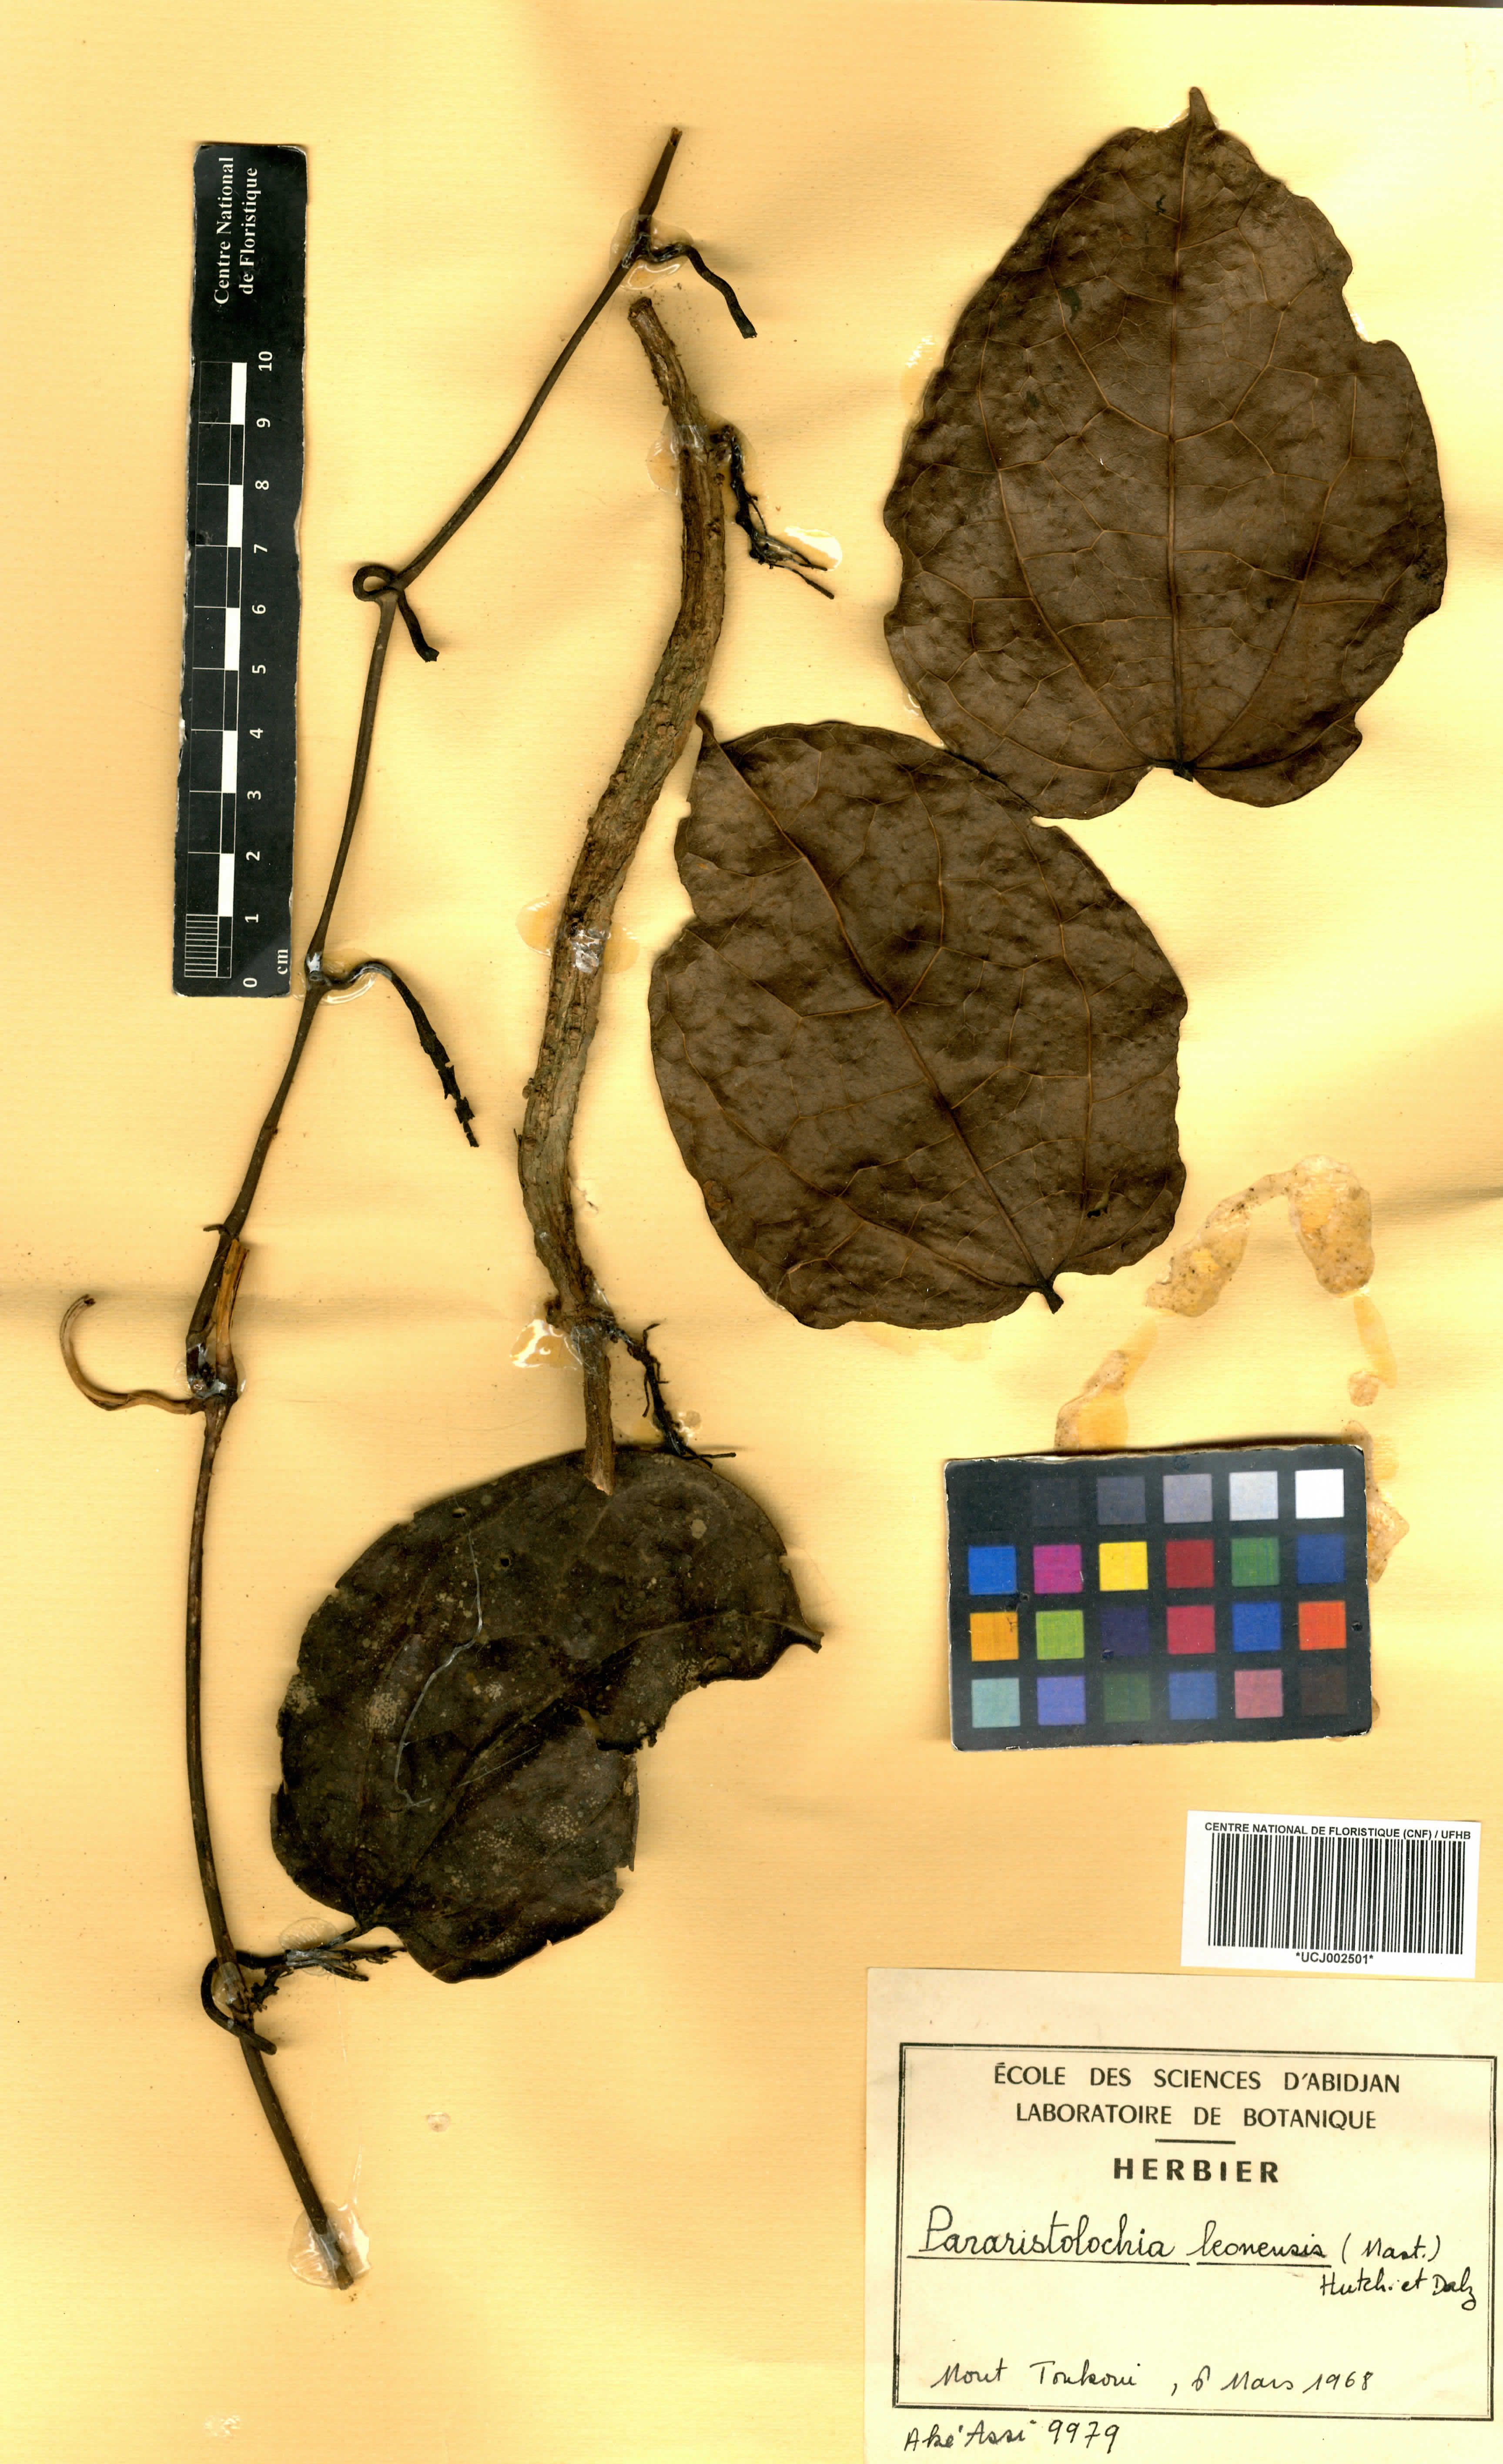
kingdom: Plantae
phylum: Tracheophyta
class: Magnoliopsida
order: Piperales
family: Aristolochiaceae
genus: Aristolochia
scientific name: Aristolochia leonensis
